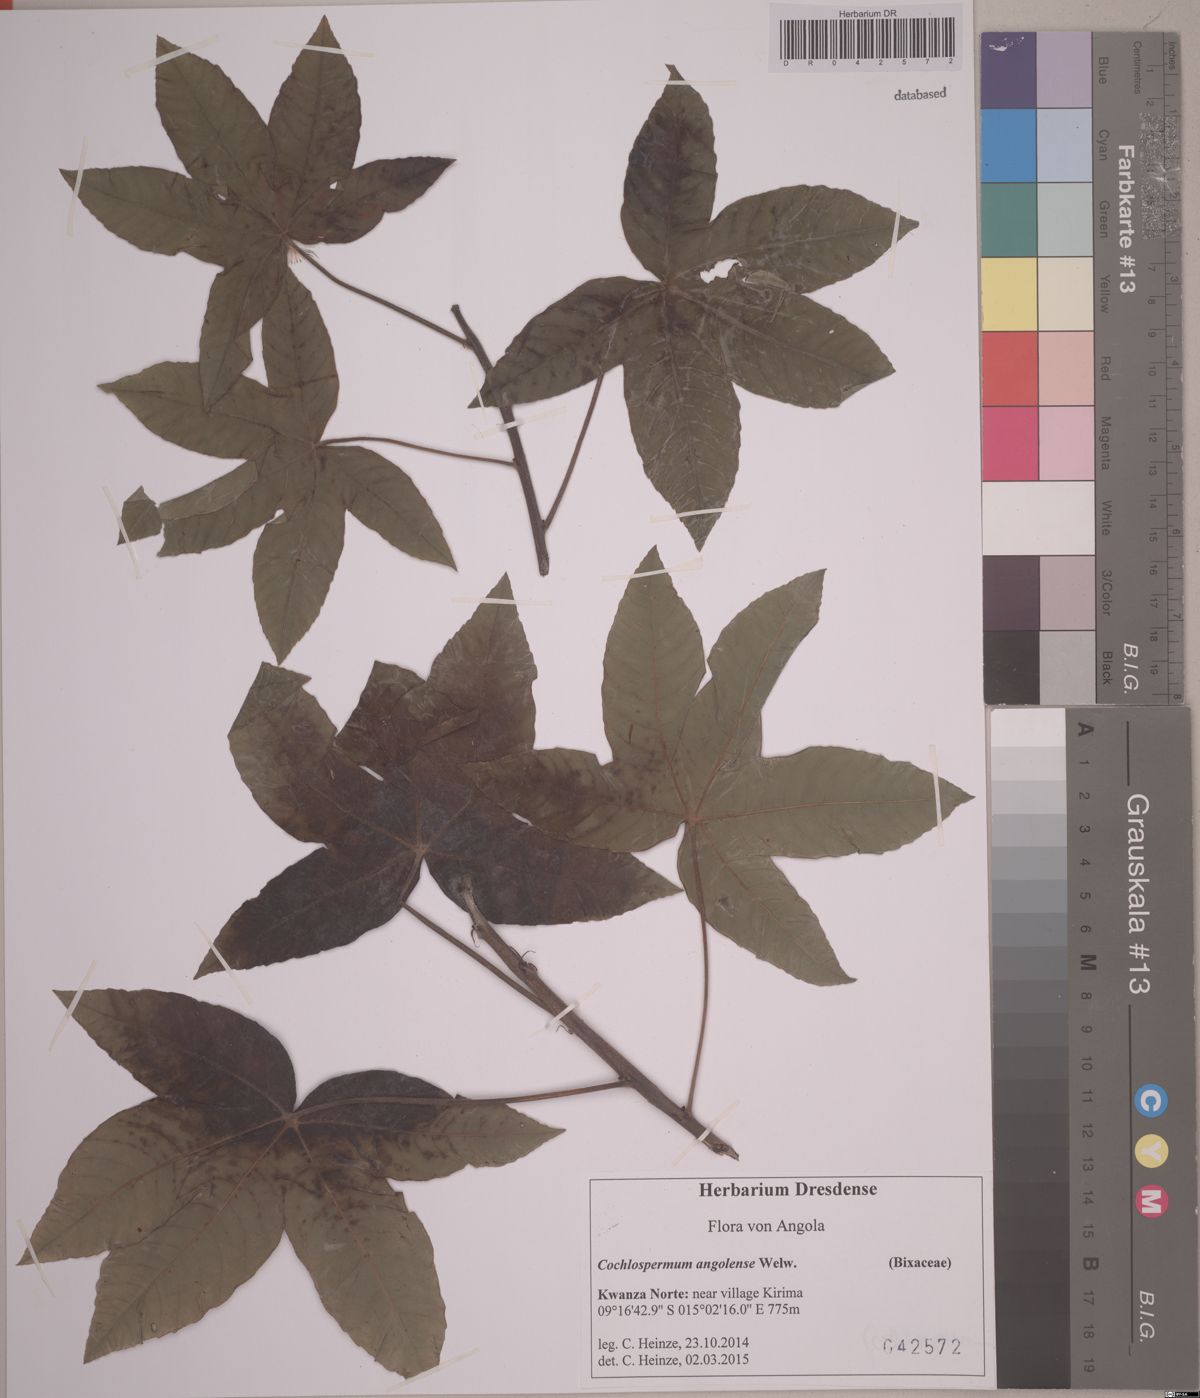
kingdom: Plantae
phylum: Tracheophyta
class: Magnoliopsida
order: Malvales
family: Cochlospermaceae
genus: Cochlospermum
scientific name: Cochlospermum angolense
